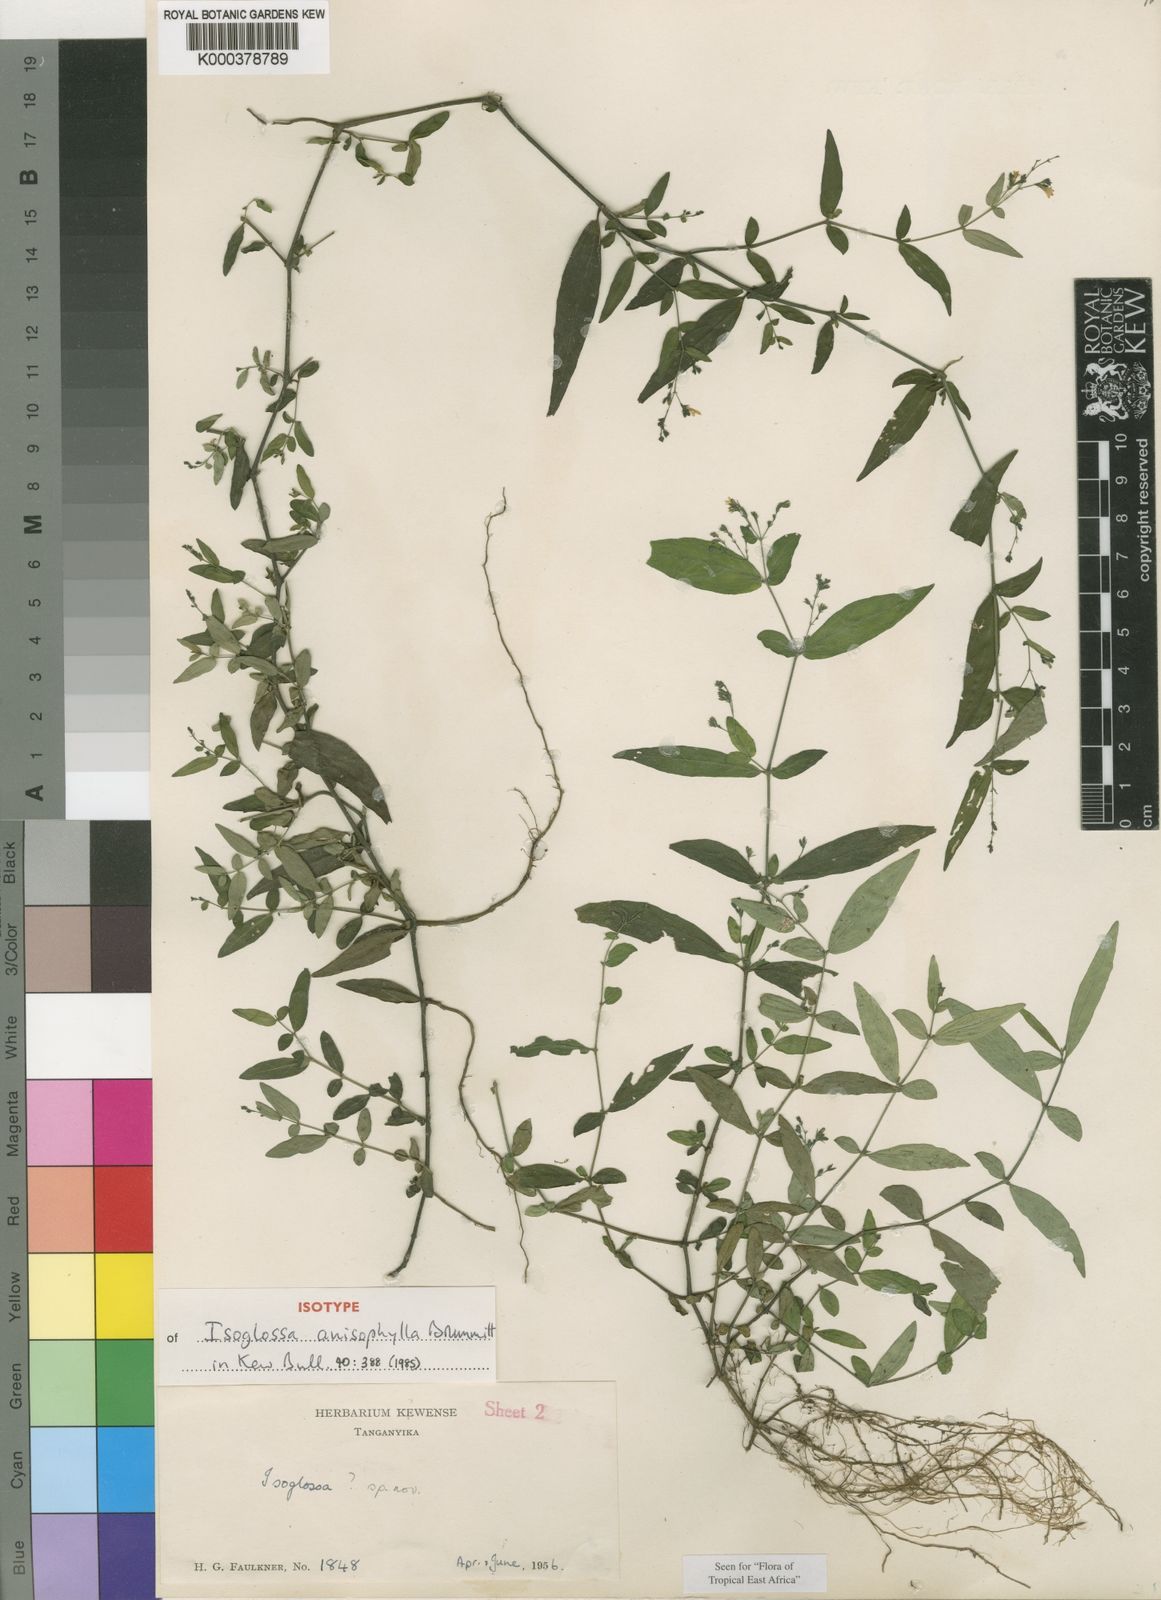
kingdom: Plantae
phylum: Tracheophyta
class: Magnoliopsida
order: Lamiales
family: Acanthaceae
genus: Isoglossa
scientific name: Isoglossa anisophylla
